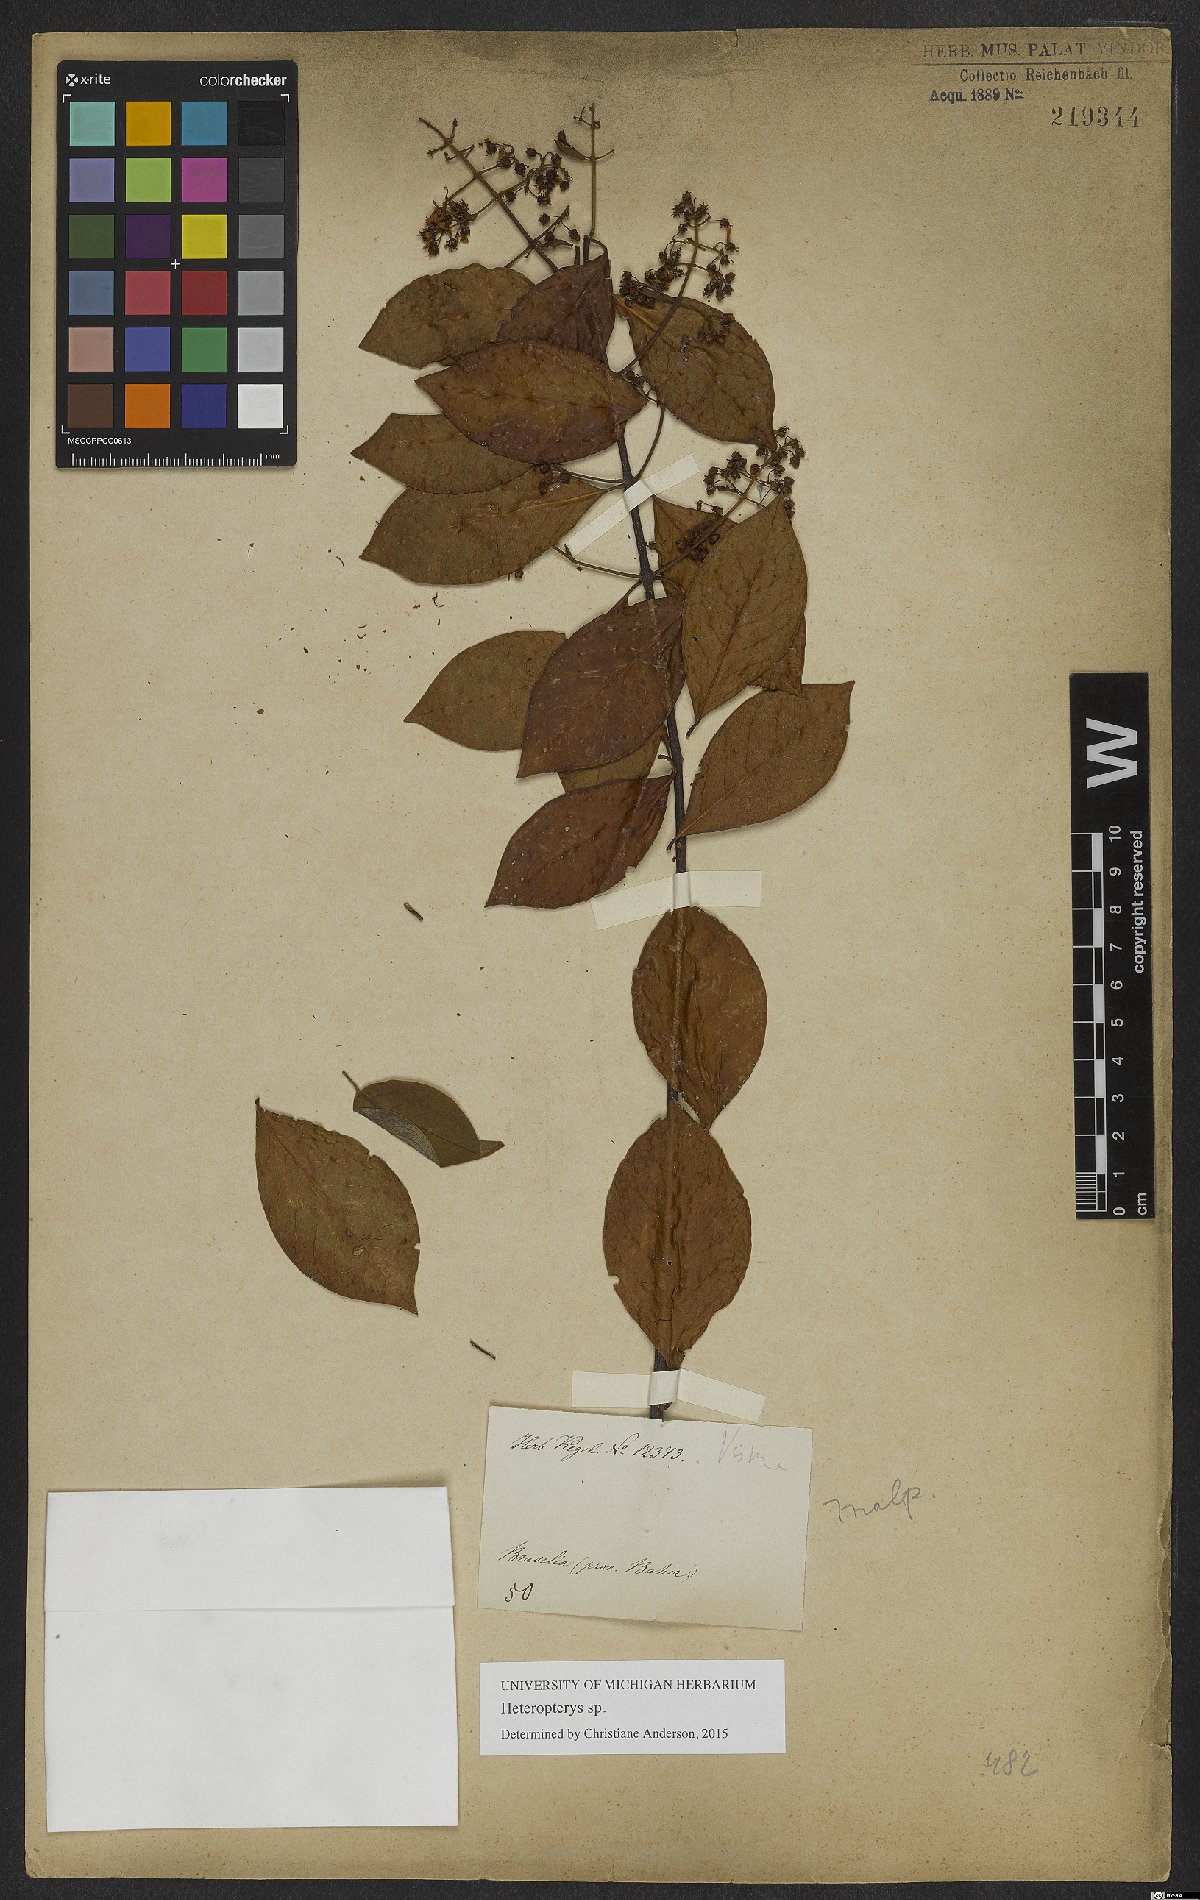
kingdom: Plantae
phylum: Tracheophyta
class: Magnoliopsida
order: Malpighiales
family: Malpighiaceae
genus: Heteropterys
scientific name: Heteropterys
